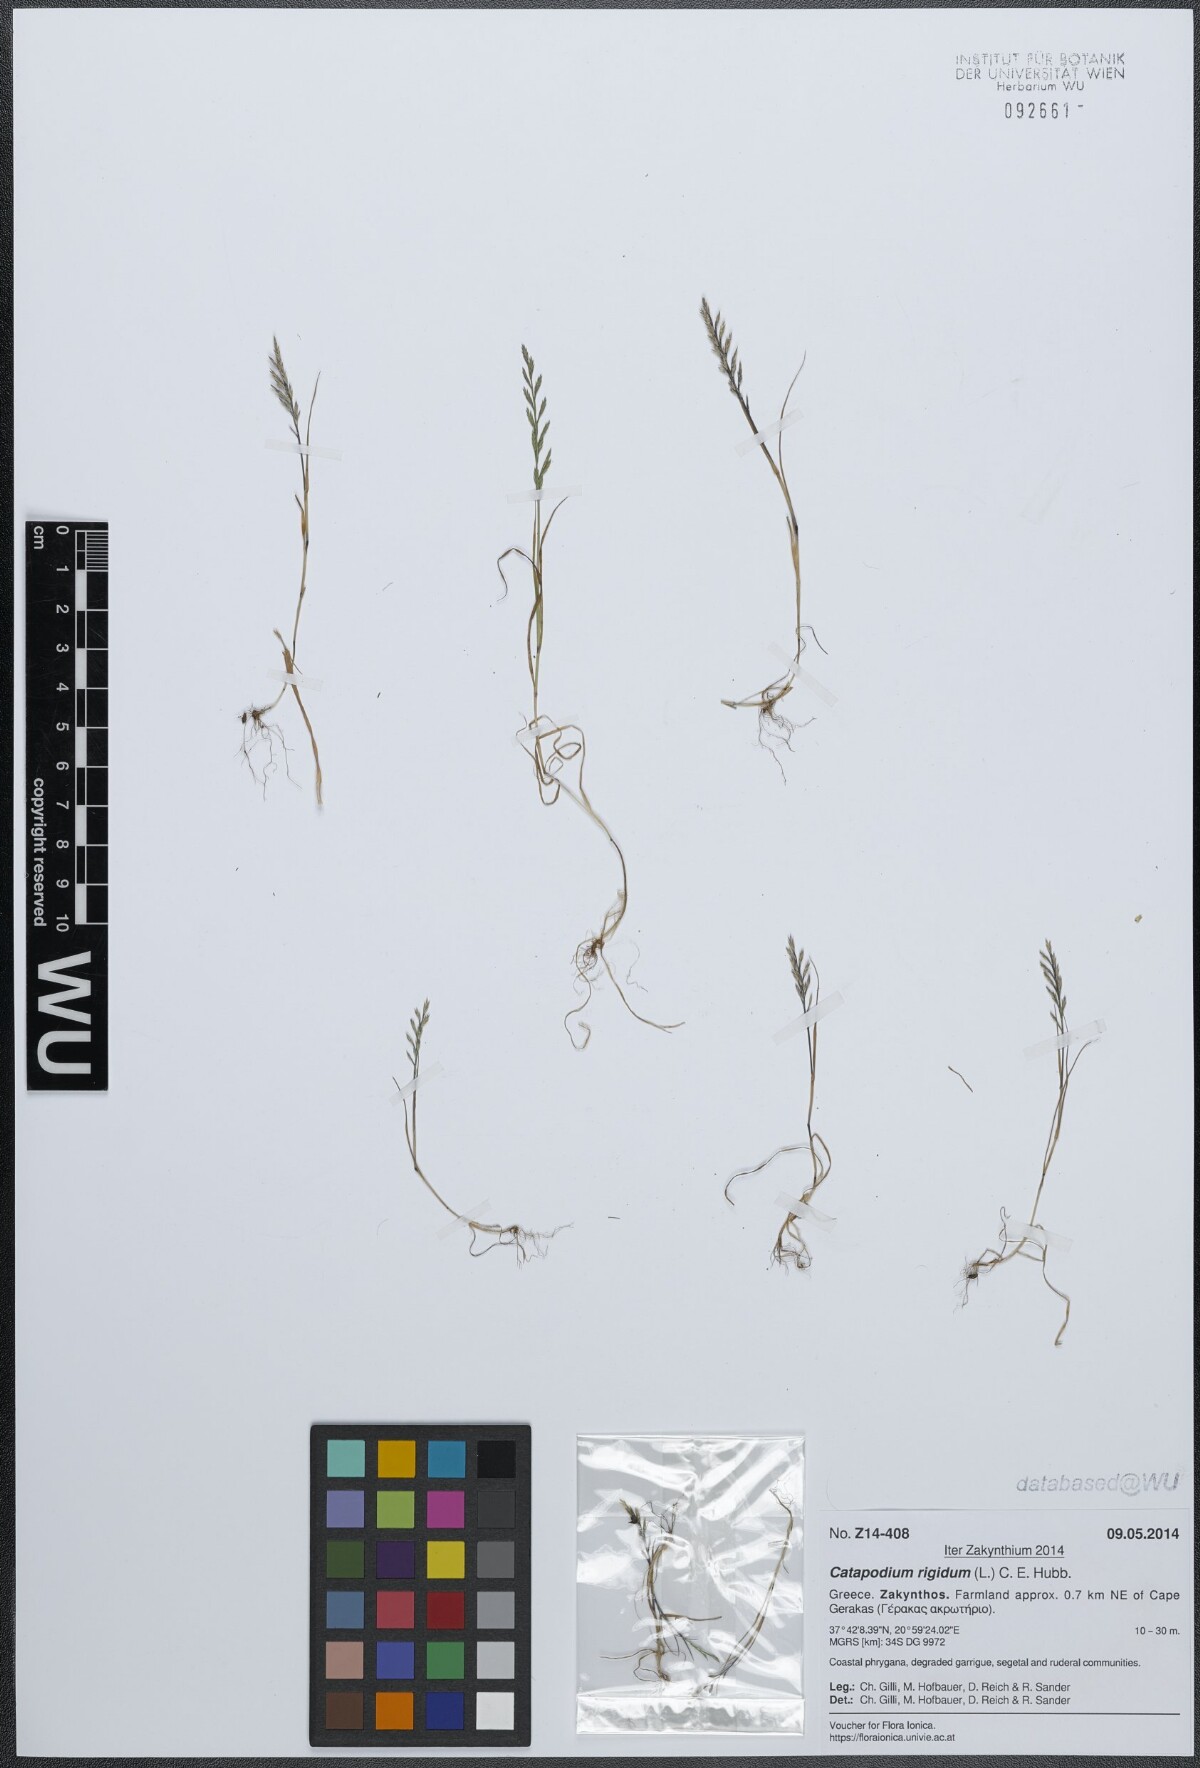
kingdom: Plantae
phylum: Tracheophyta
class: Liliopsida
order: Poales
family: Poaceae
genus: Catapodium
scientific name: Catapodium rigidum
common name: Fern-grass
